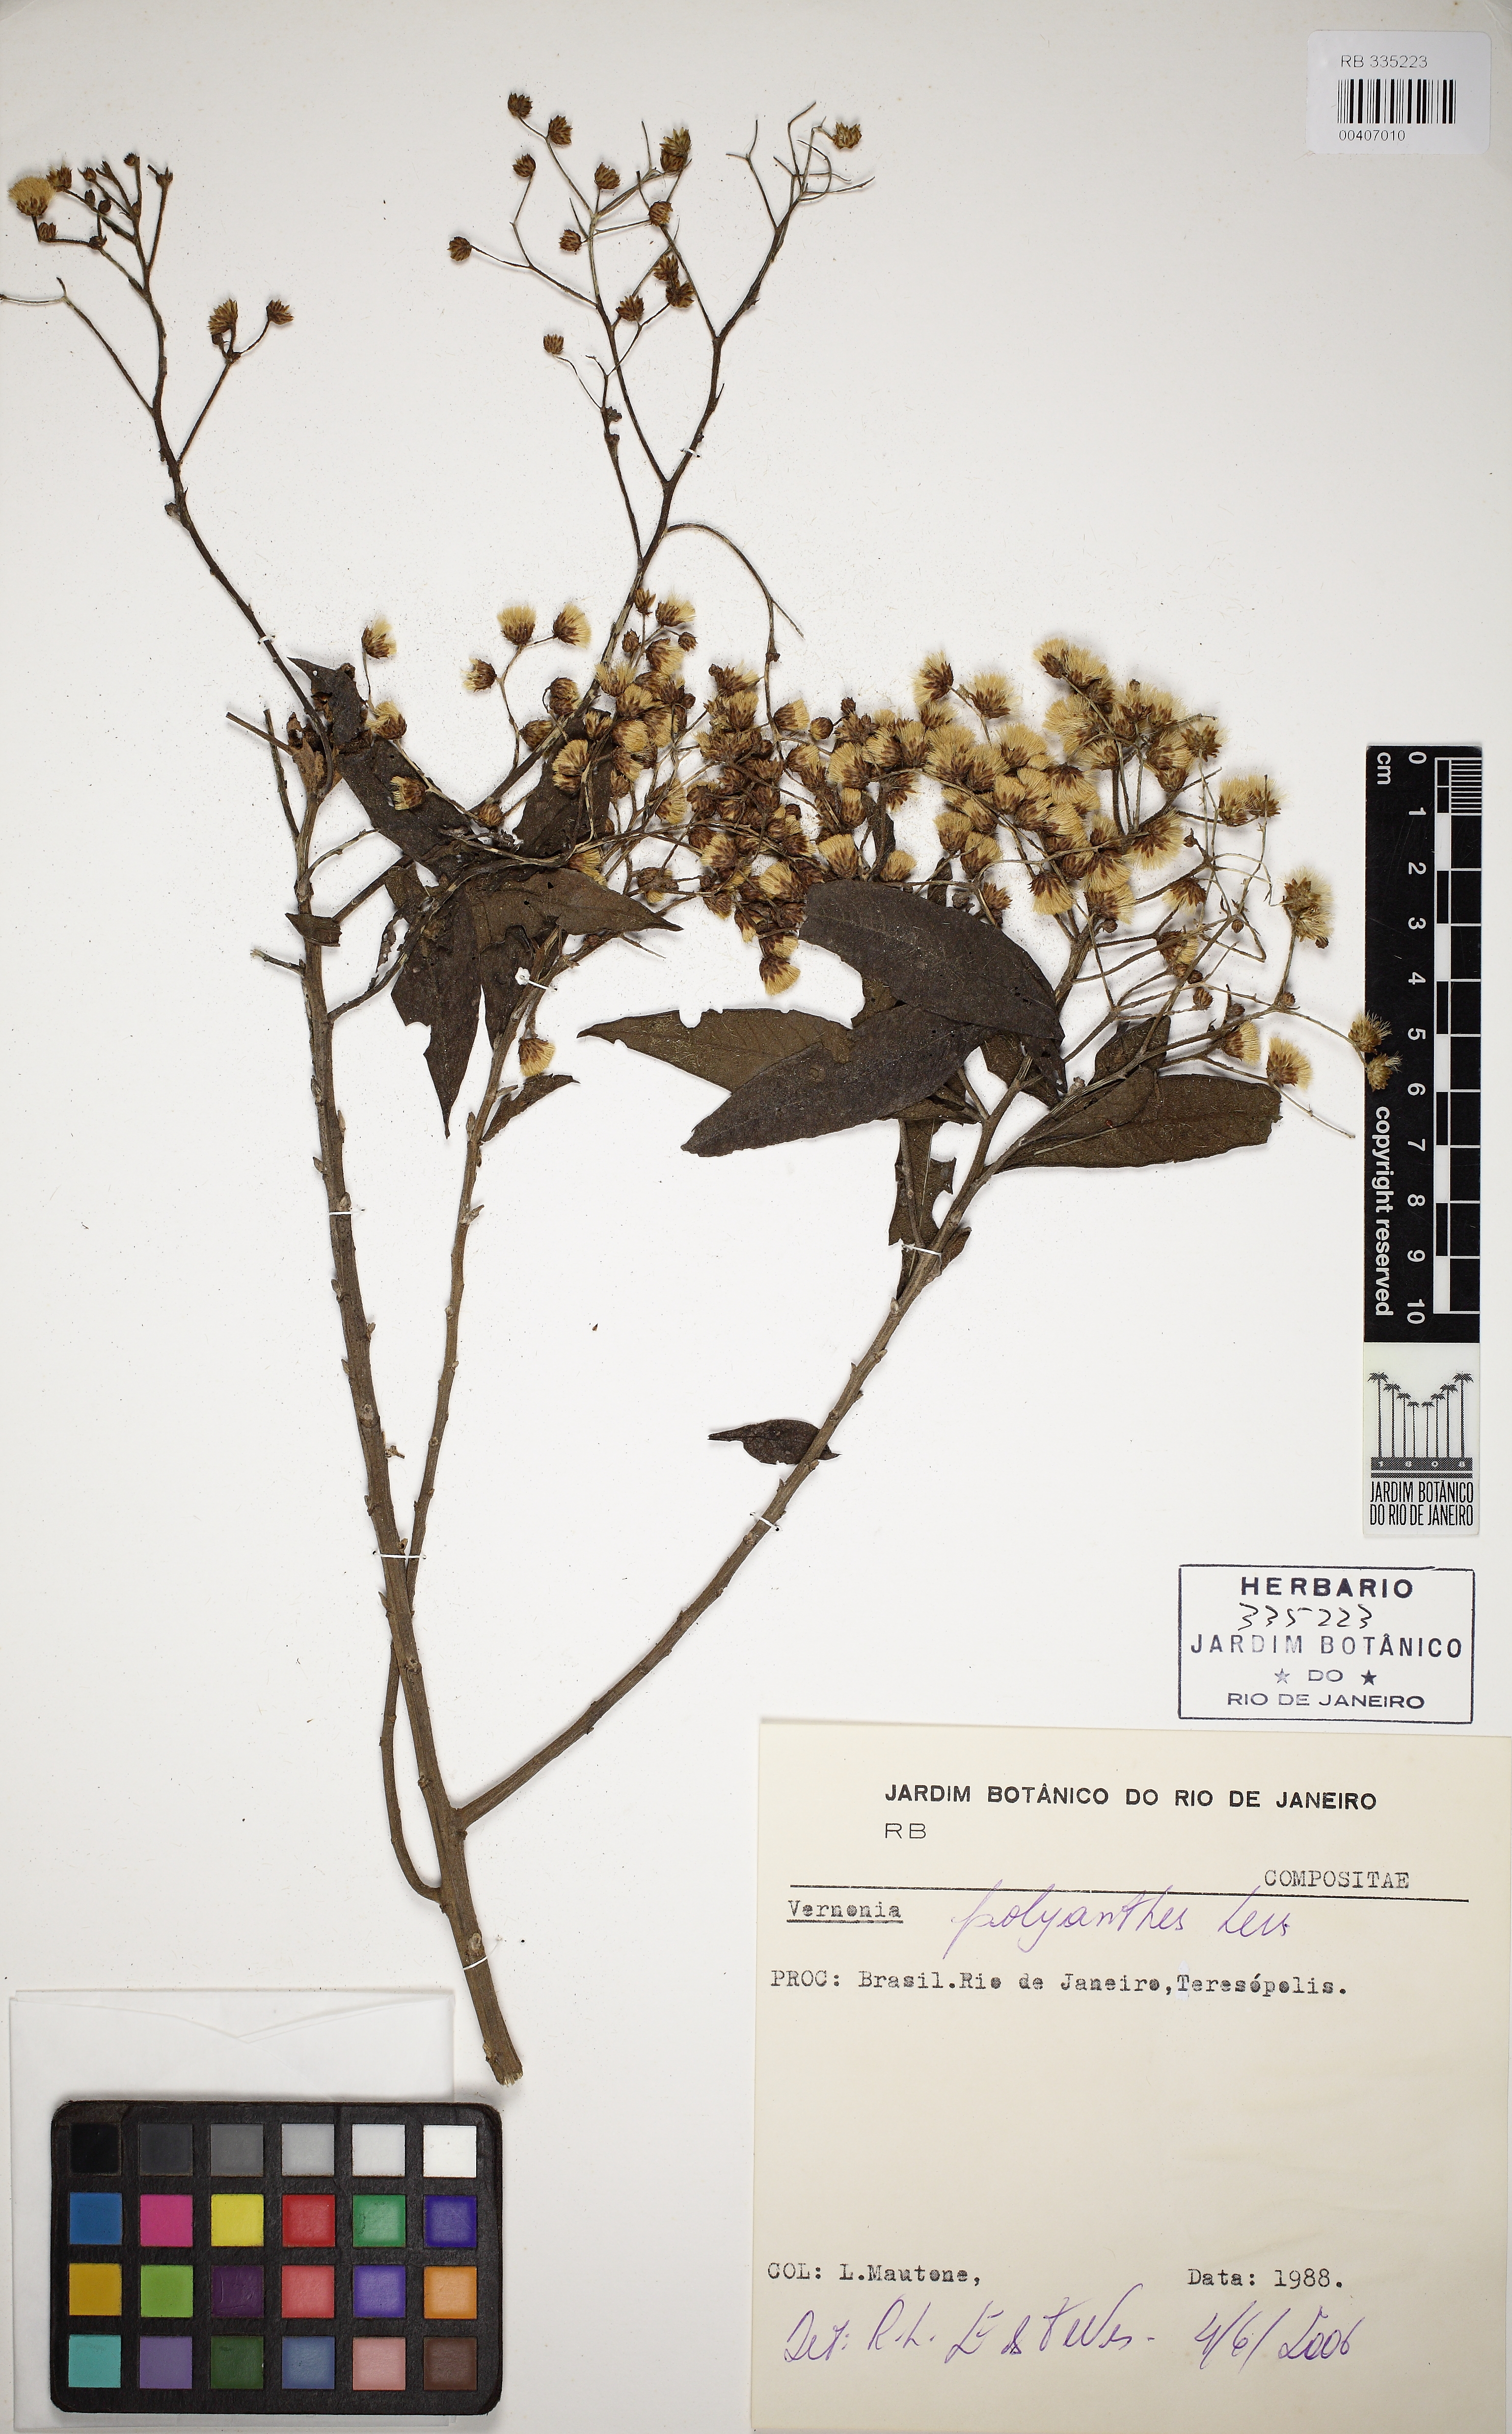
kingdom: Plantae
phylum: Tracheophyta
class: Magnoliopsida
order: Asterales
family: Asteraceae
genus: Vernonanthura
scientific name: Vernonanthura polyanthes
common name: Tree aster
